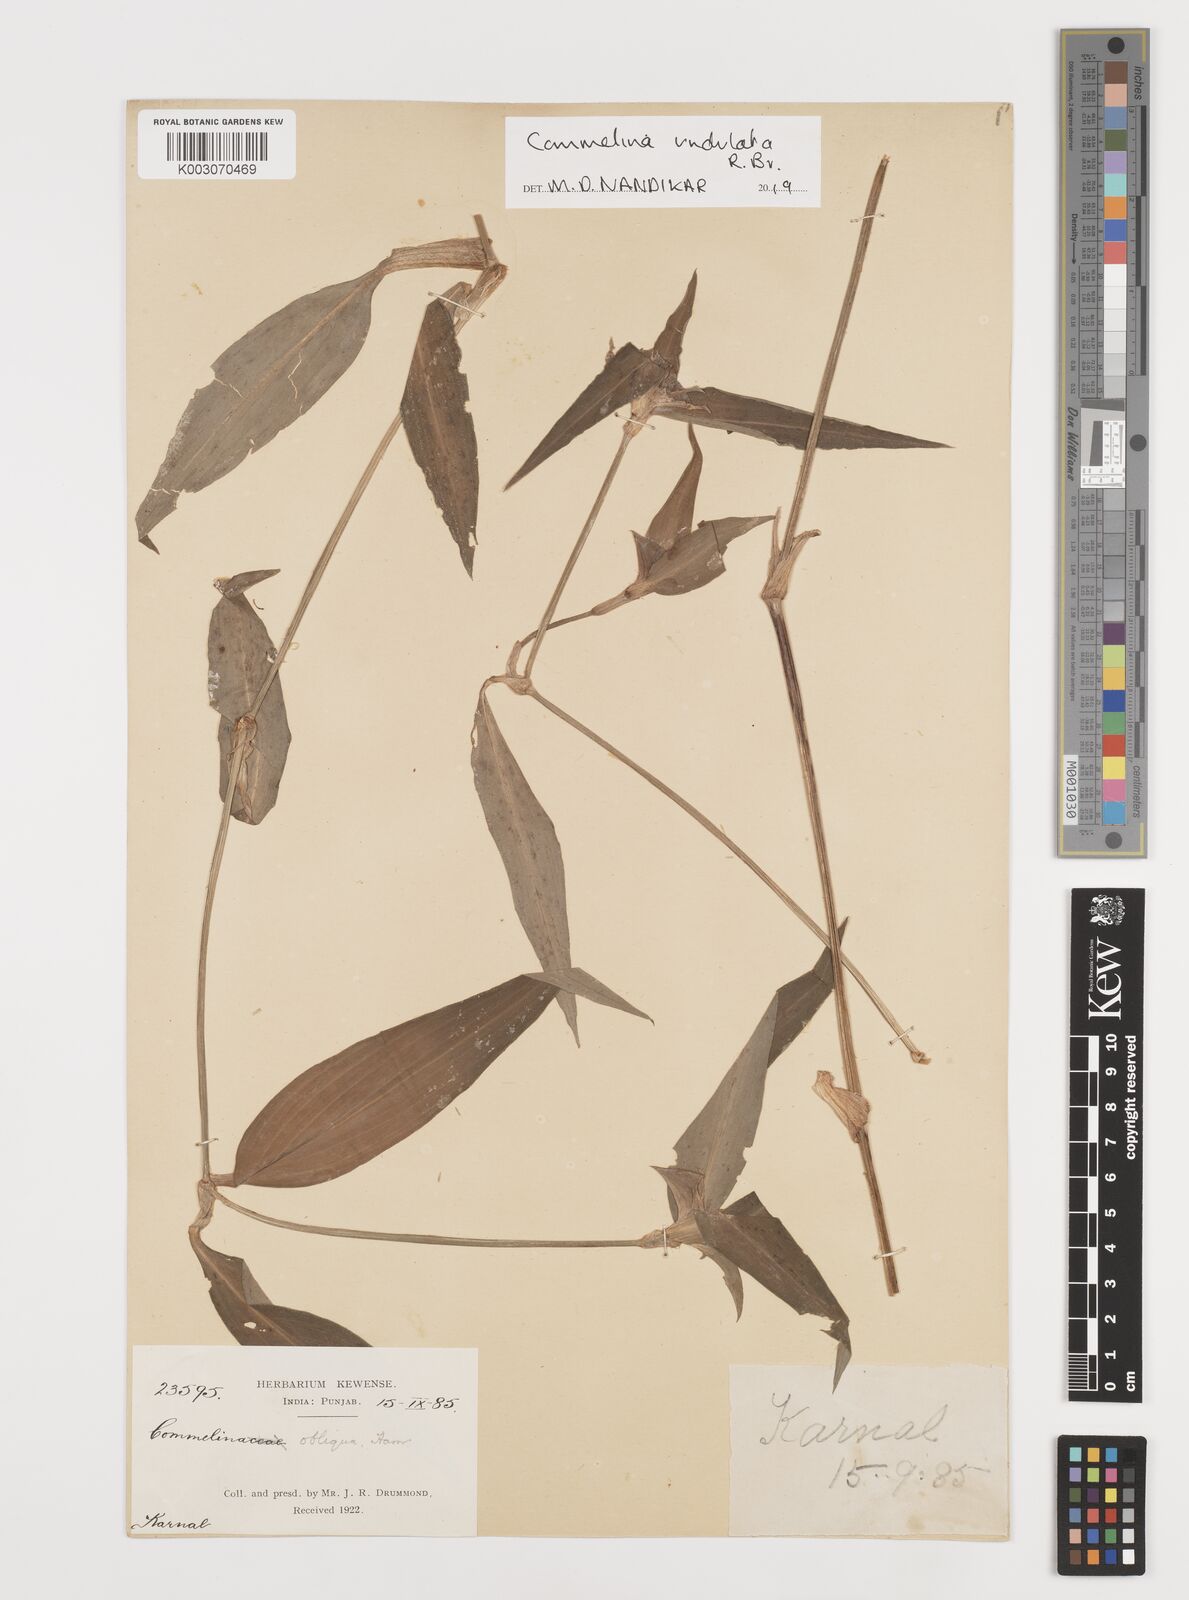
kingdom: Plantae
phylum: Tracheophyta
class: Liliopsida
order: Commelinales
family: Commelinaceae
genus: Commelina
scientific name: Commelina undulata
